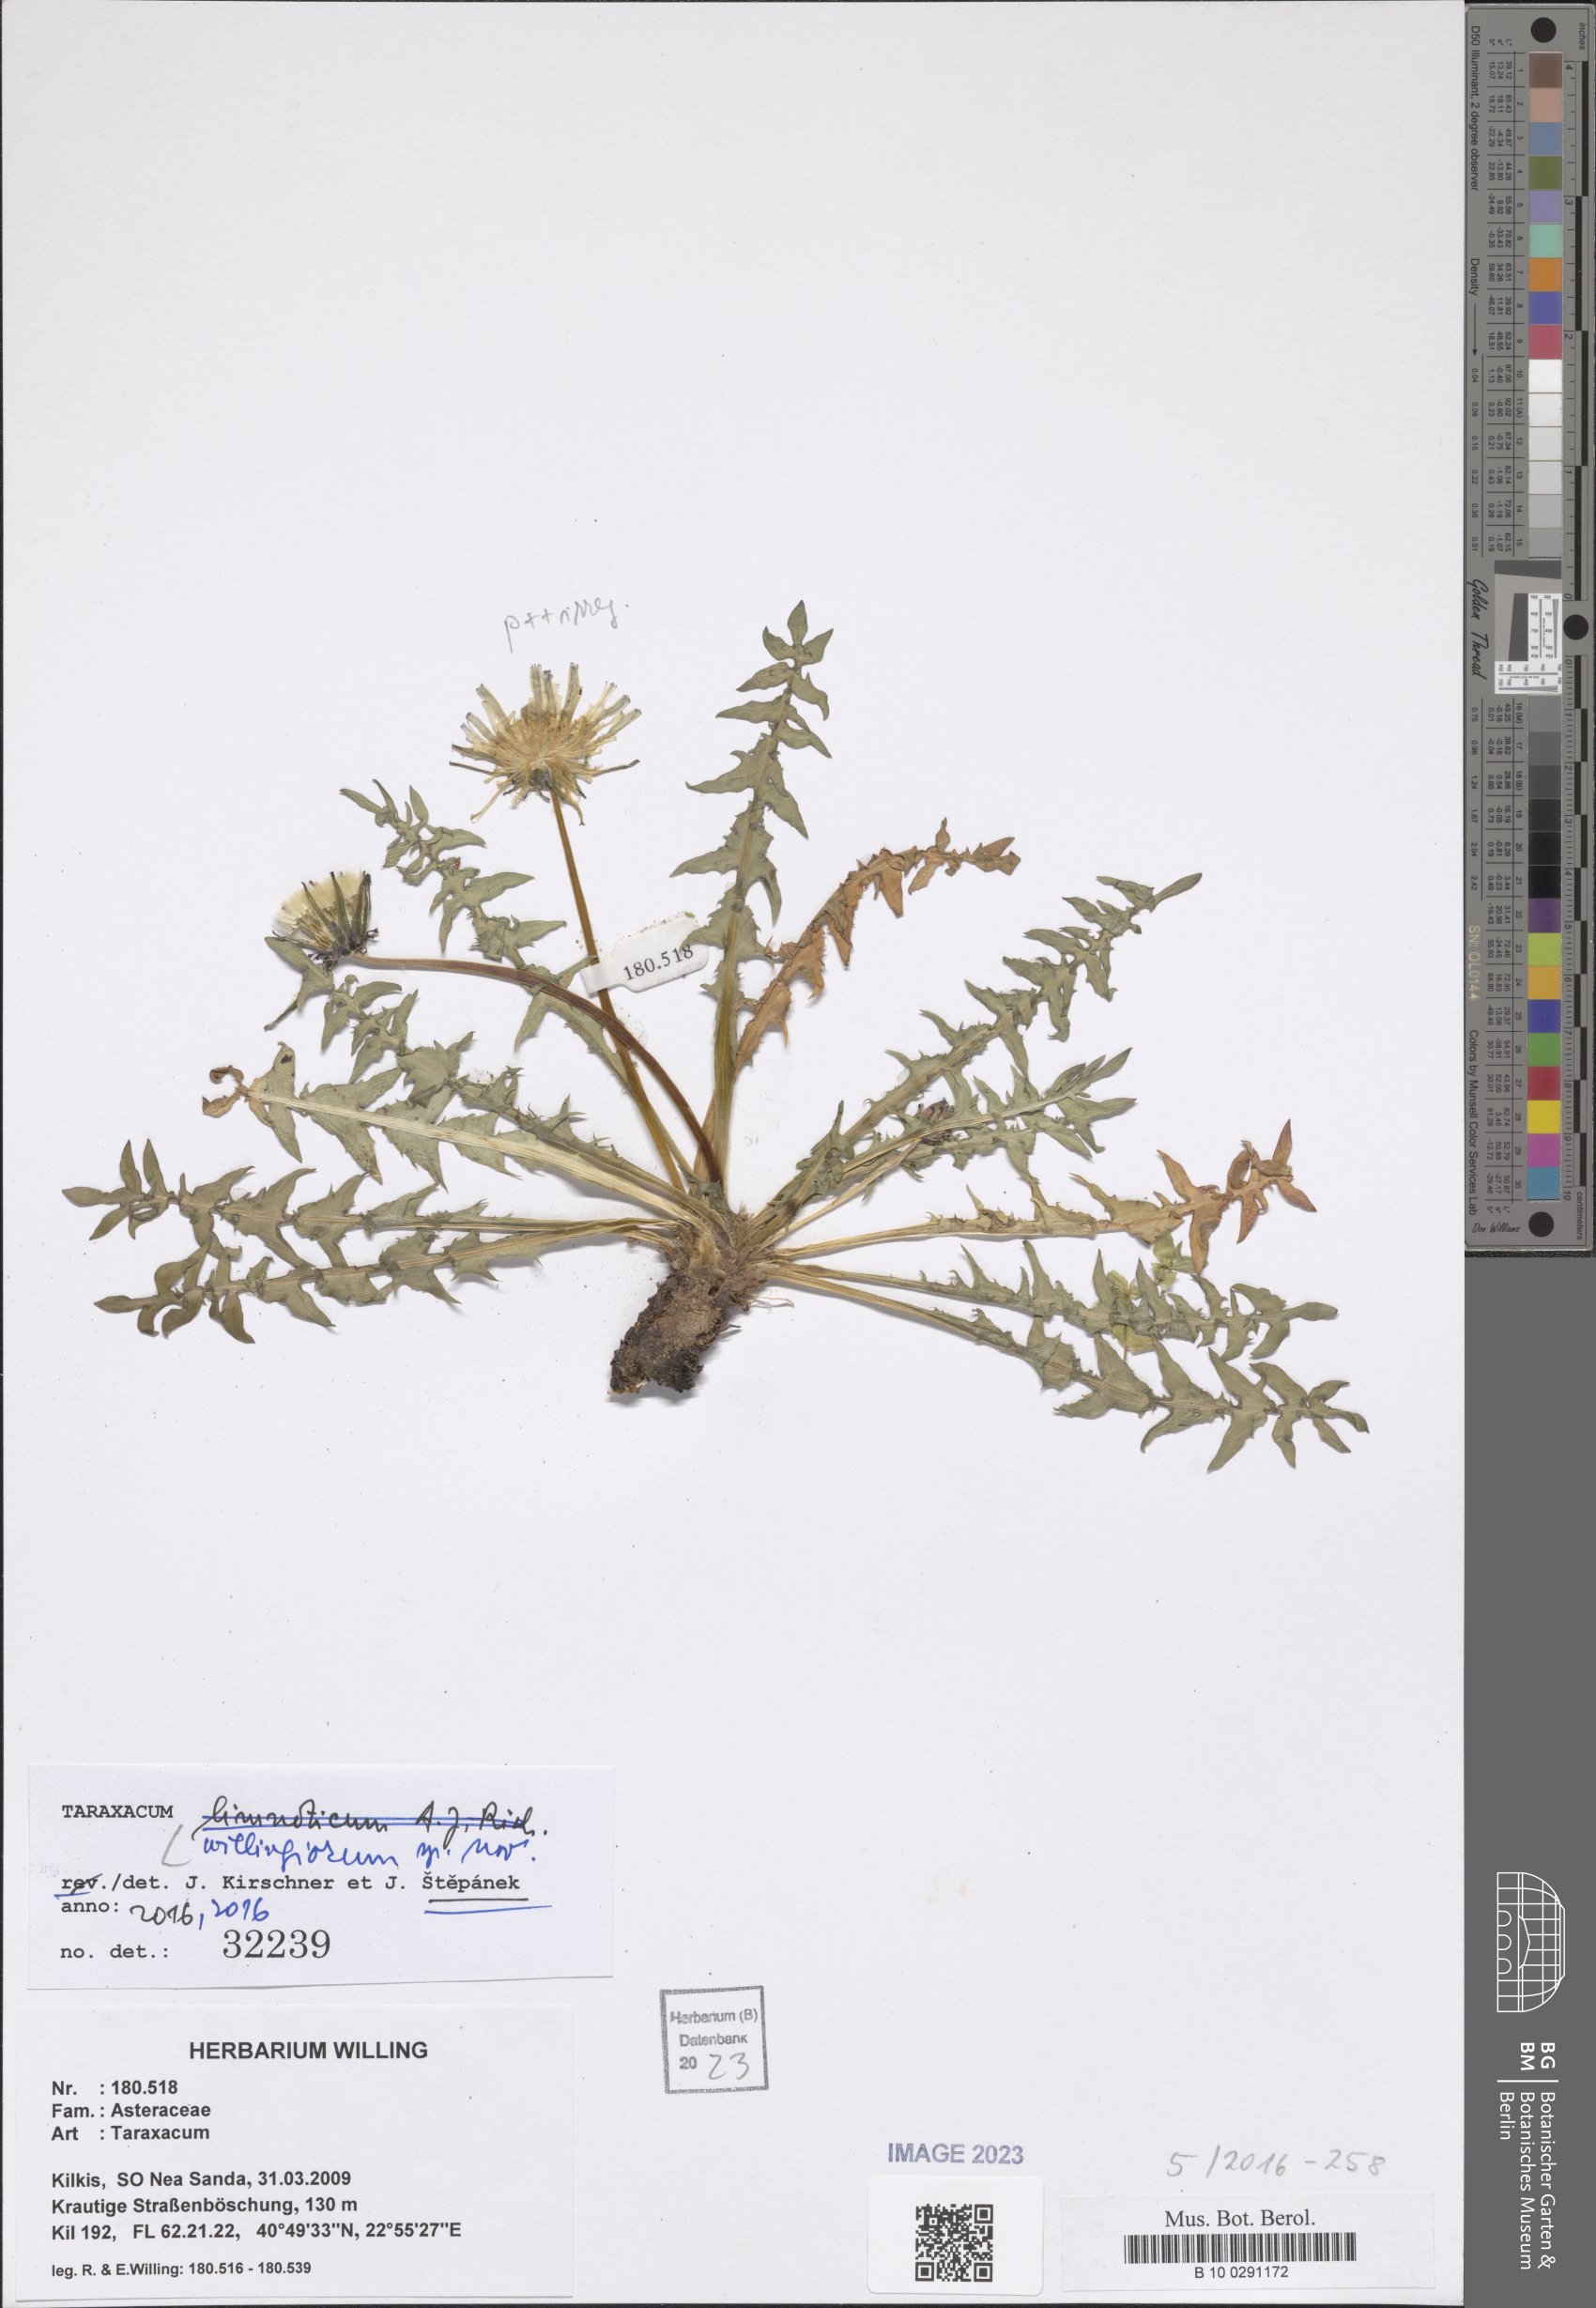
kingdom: Plantae
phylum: Tracheophyta
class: Magnoliopsida
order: Asterales
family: Asteraceae
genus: Taraxacum
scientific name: Taraxacum
